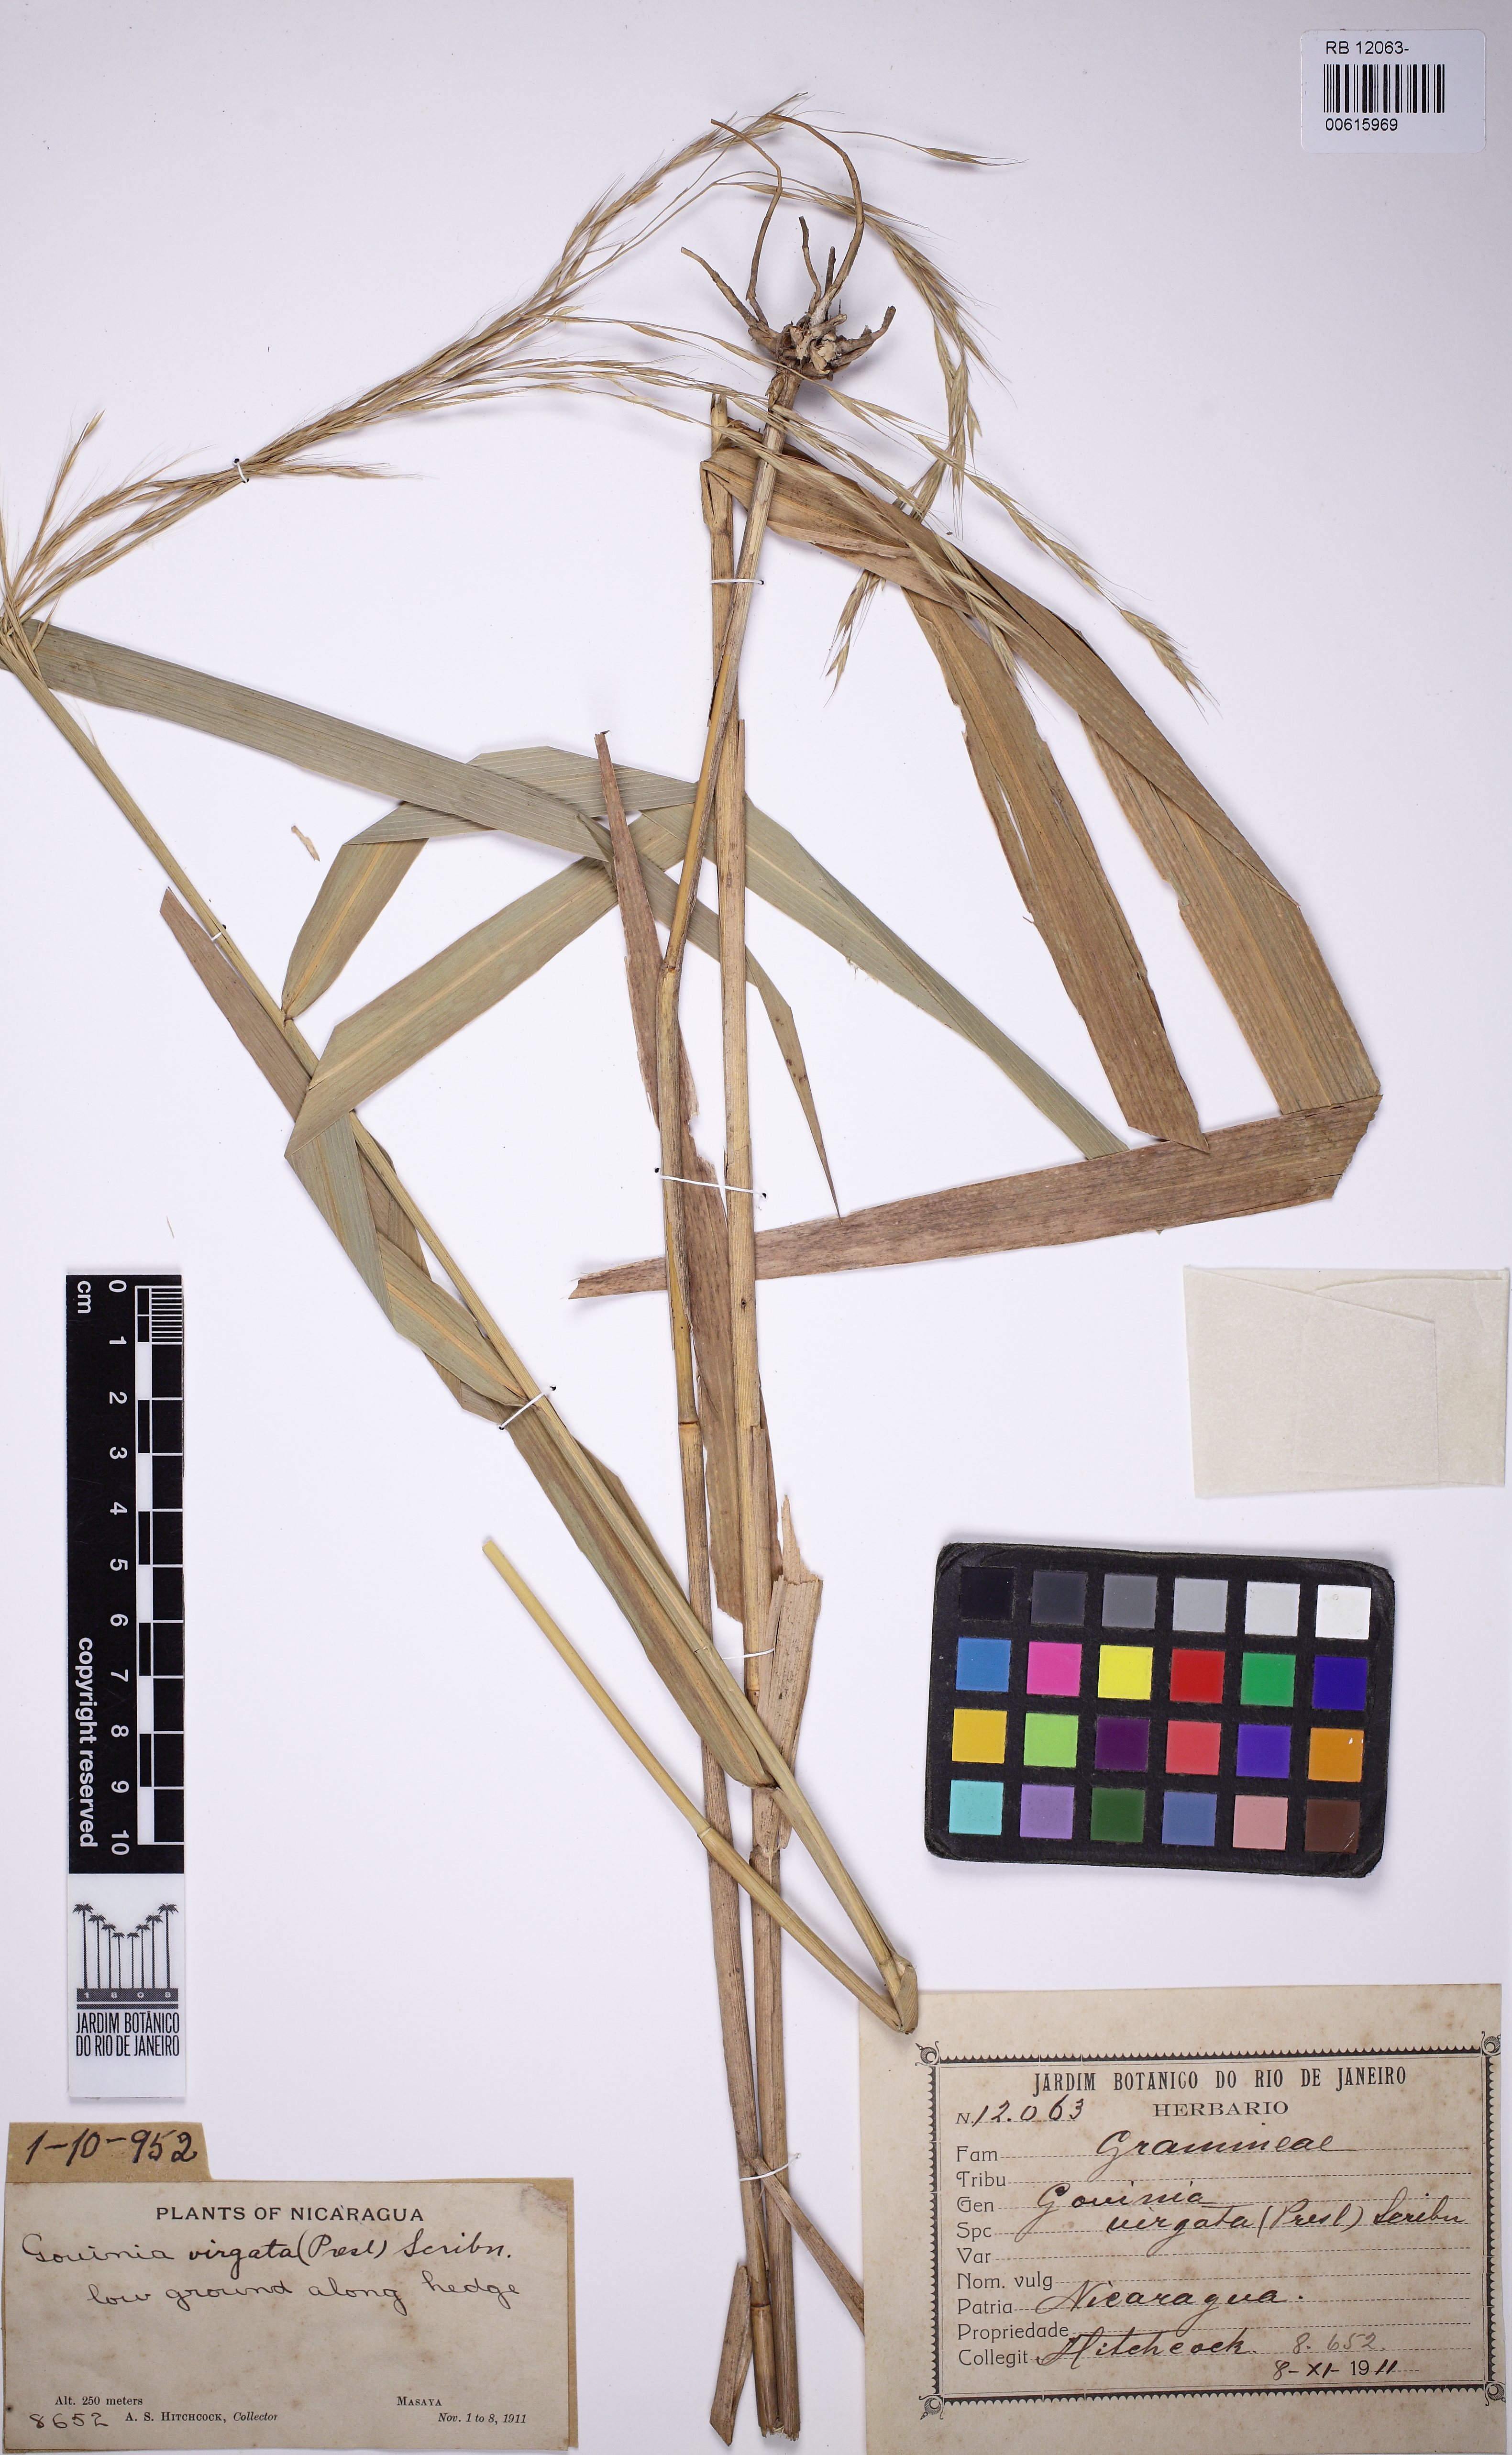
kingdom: Plantae
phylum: Tracheophyta
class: Liliopsida
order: Poales
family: Poaceae
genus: Gouinia
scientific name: Gouinia virgata
